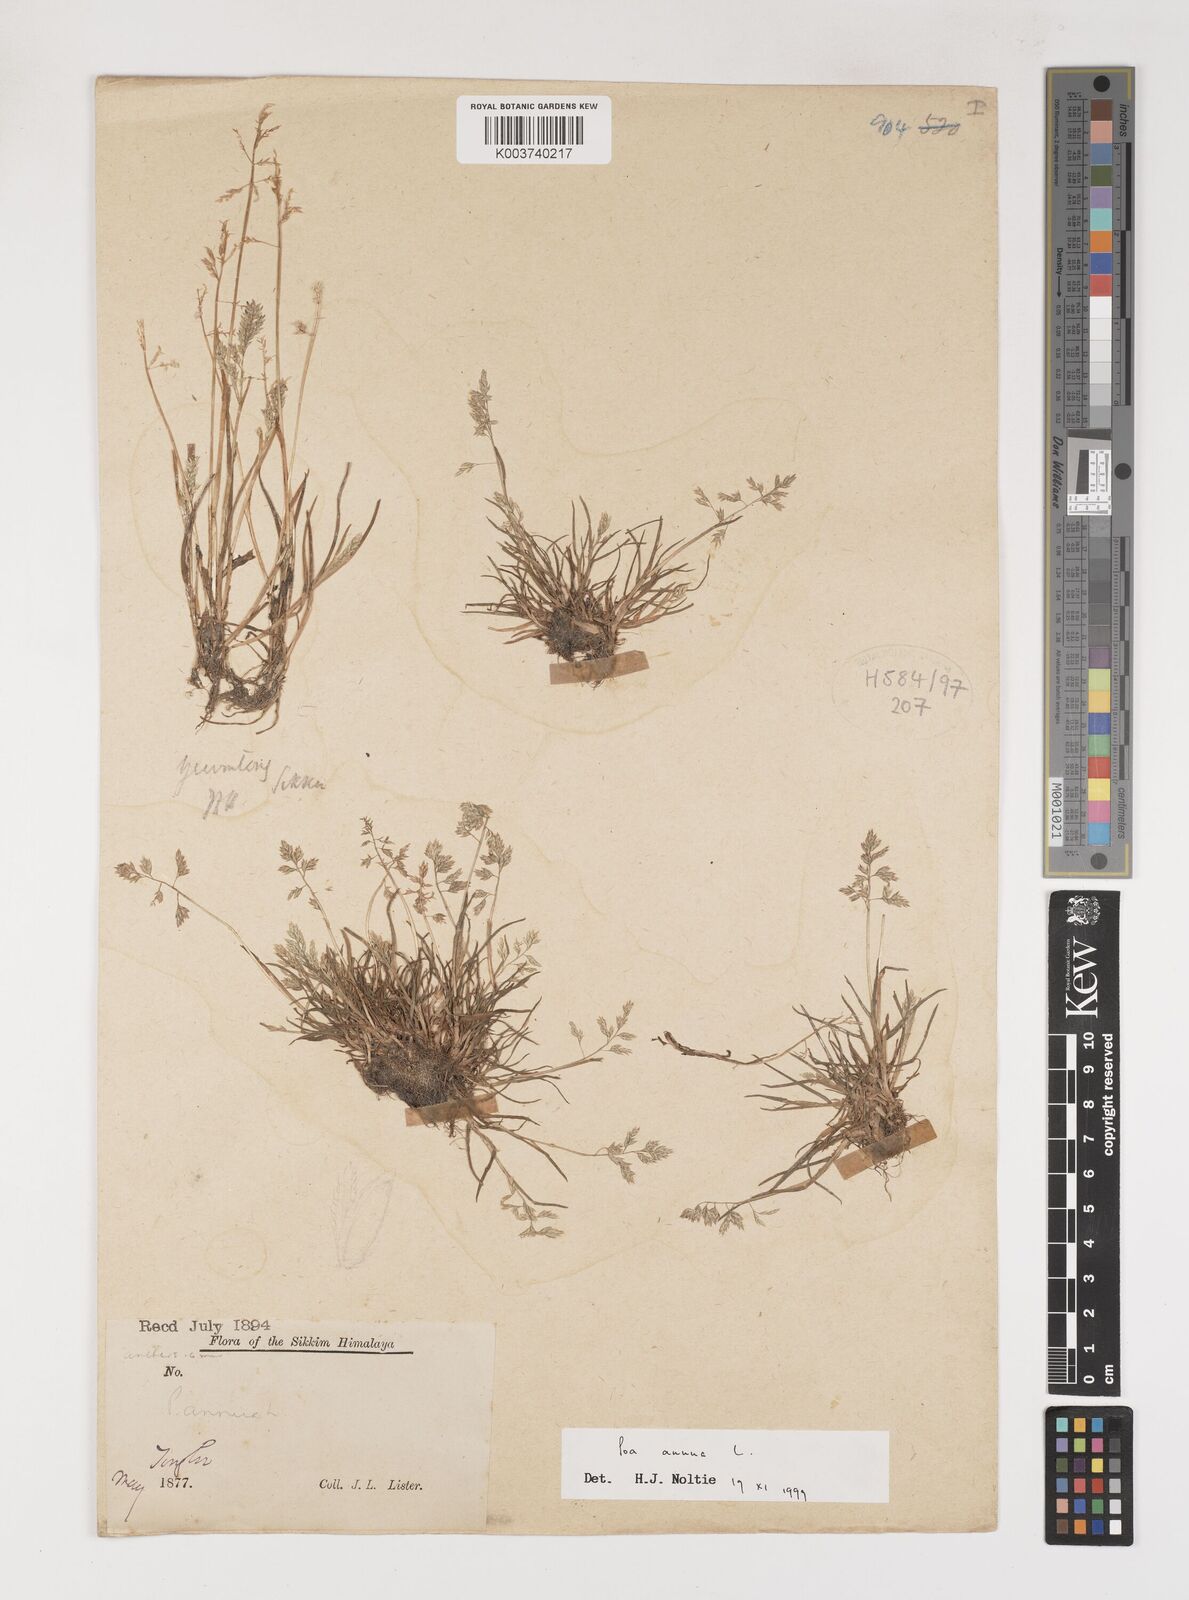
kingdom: Plantae
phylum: Tracheophyta
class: Liliopsida
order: Poales
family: Poaceae
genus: Poa
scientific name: Poa annua
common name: Annual bluegrass
